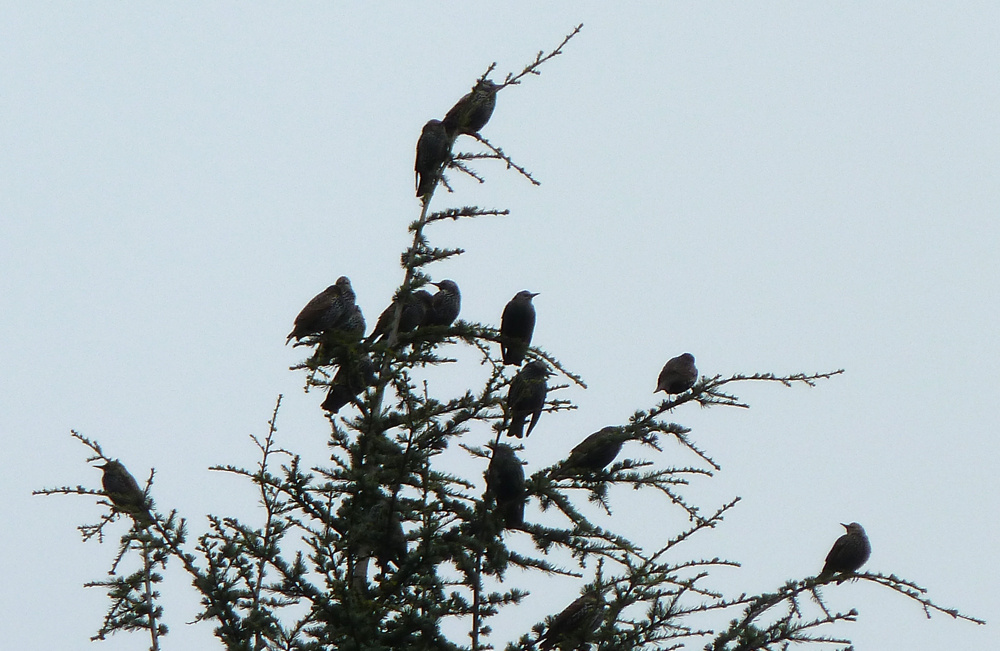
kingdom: Animalia
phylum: Chordata
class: Aves
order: Passeriformes
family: Sturnidae
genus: Sturnus
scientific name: Sturnus vulgaris
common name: Common starling
